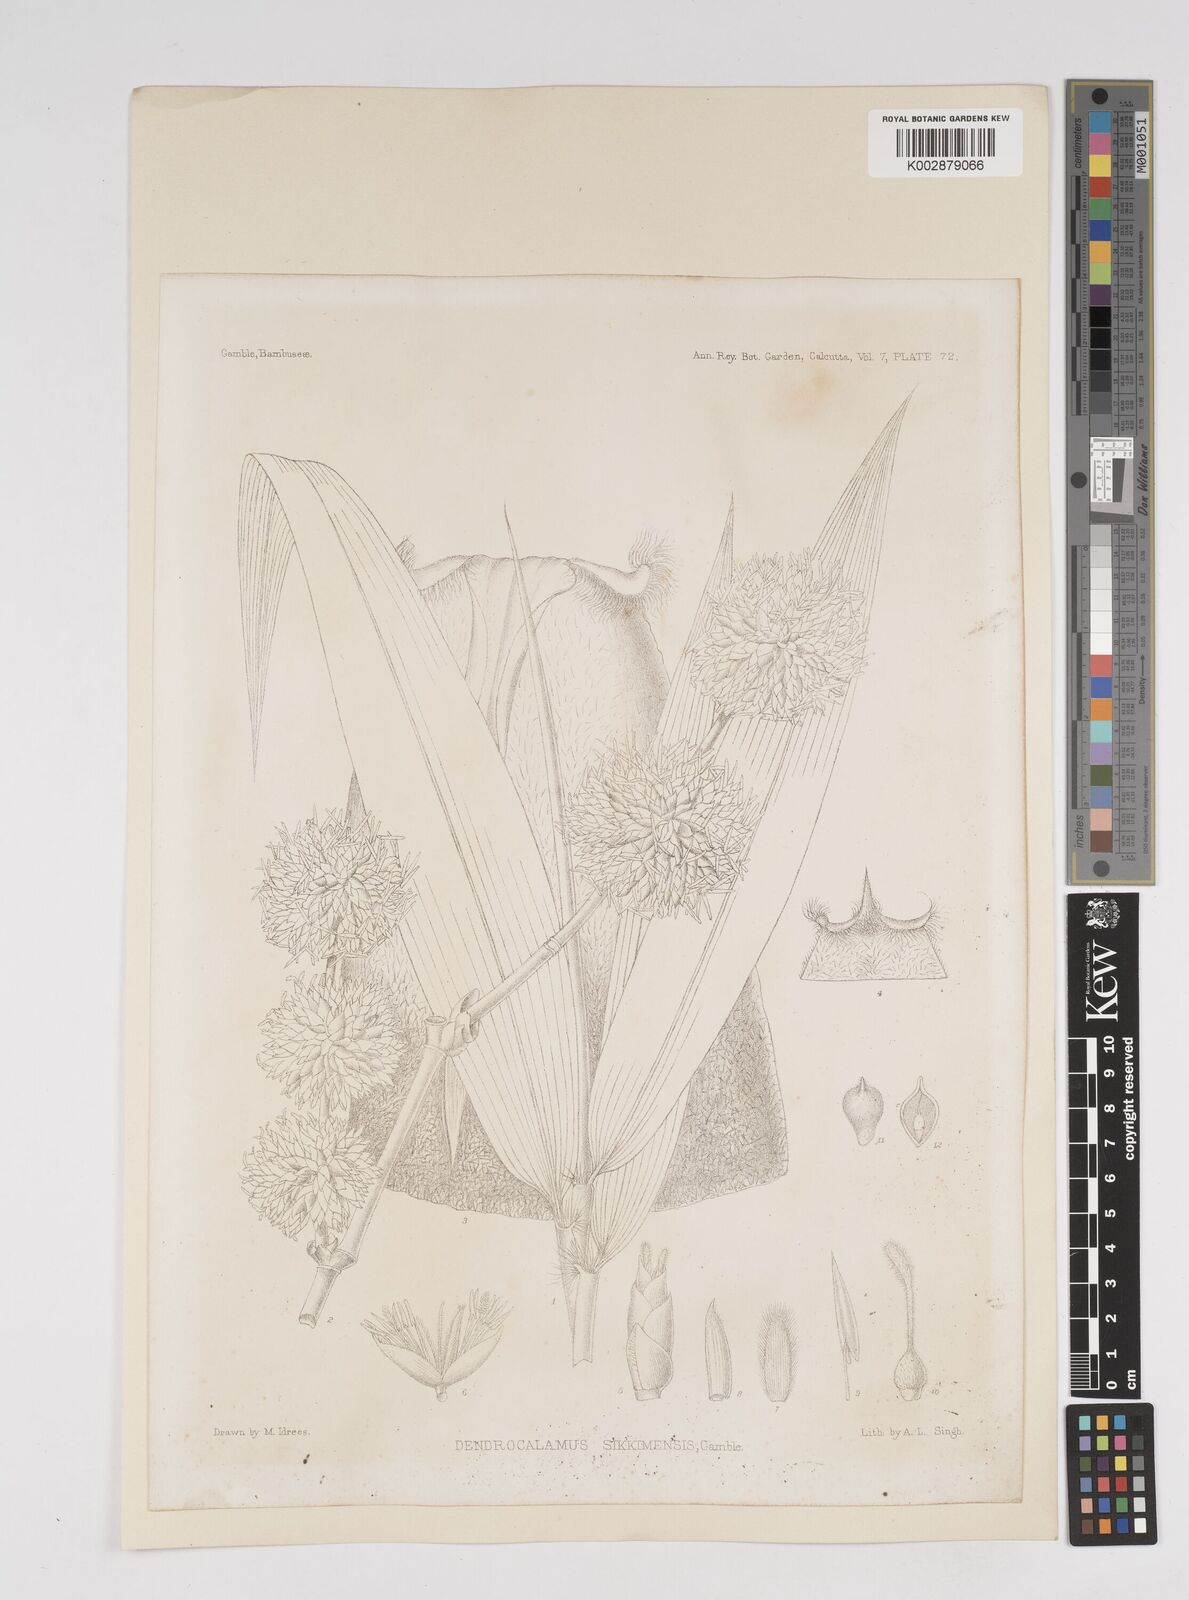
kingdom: Plantae
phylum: Tracheophyta
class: Liliopsida
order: Poales
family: Poaceae
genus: Dendrocalamus
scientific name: Dendrocalamus sikkimensis
